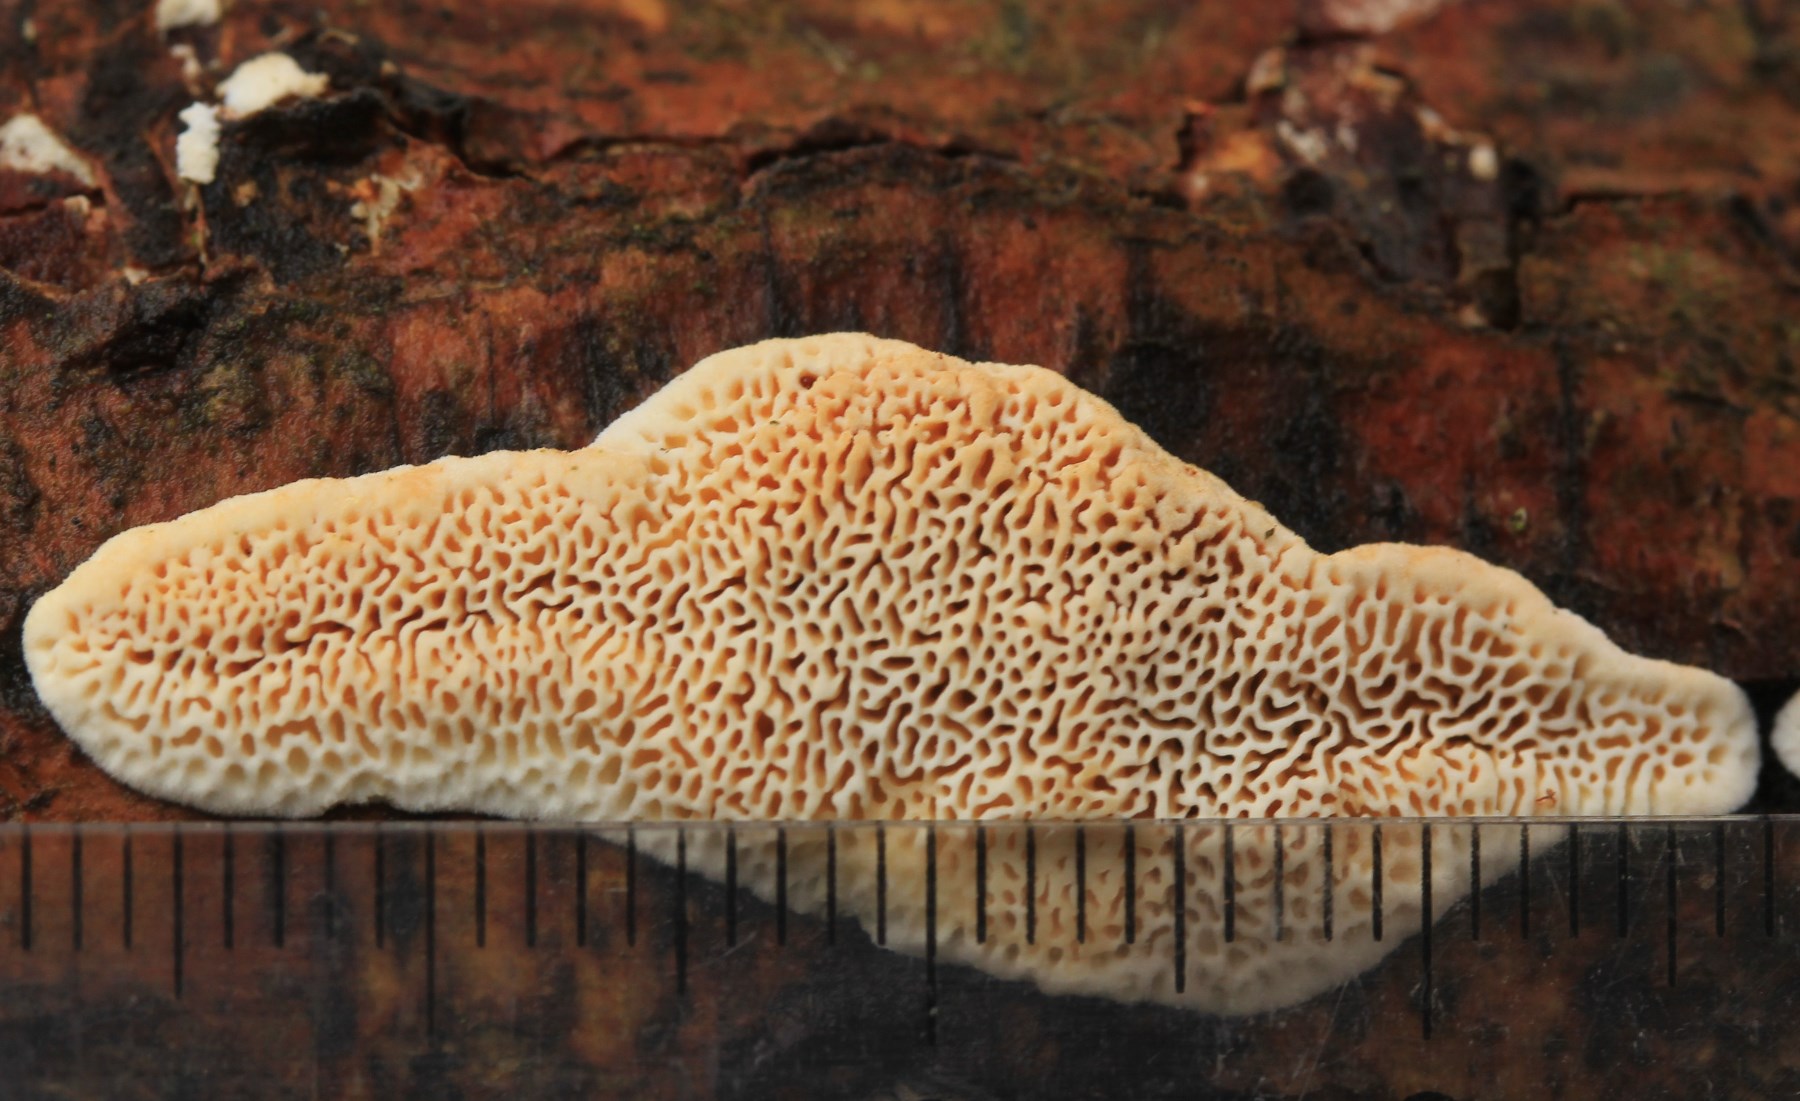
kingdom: Fungi
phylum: Basidiomycota
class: Agaricomycetes
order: Polyporales
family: Fomitopsidaceae
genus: Fomitopsis
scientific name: Fomitopsis
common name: pile-skiveporesvamp
